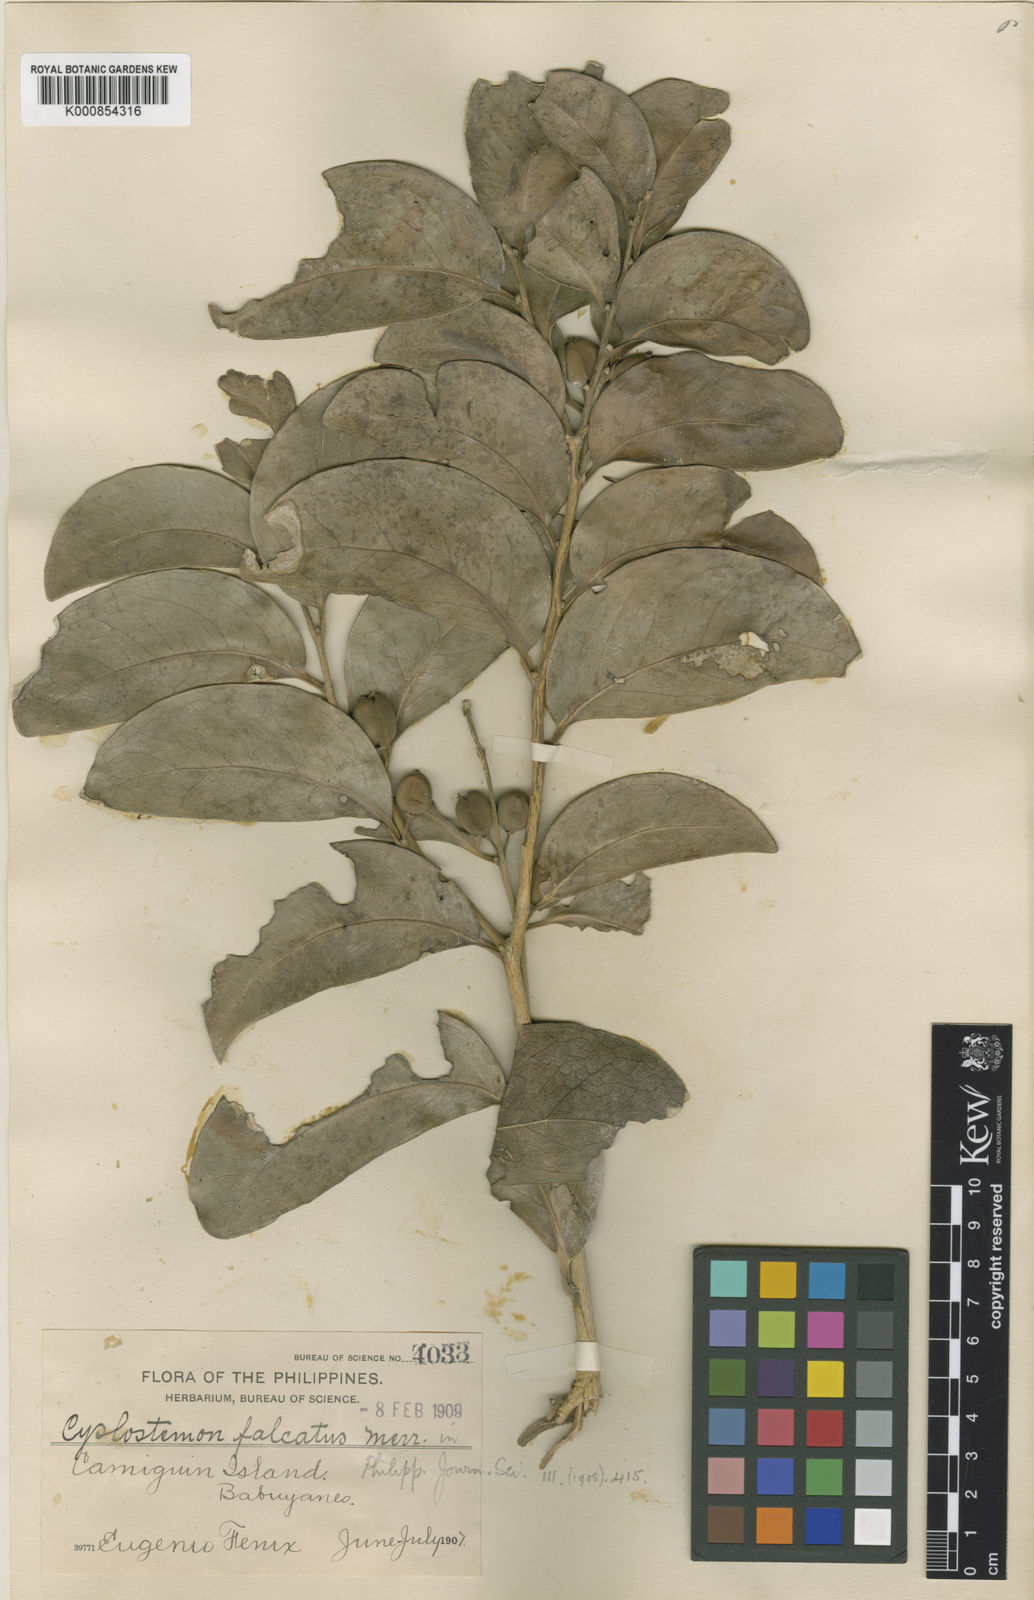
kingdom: Plantae
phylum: Tracheophyta
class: Magnoliopsida
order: Malpighiales
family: Putranjivaceae
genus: Drypetes
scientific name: Drypetes falcata
